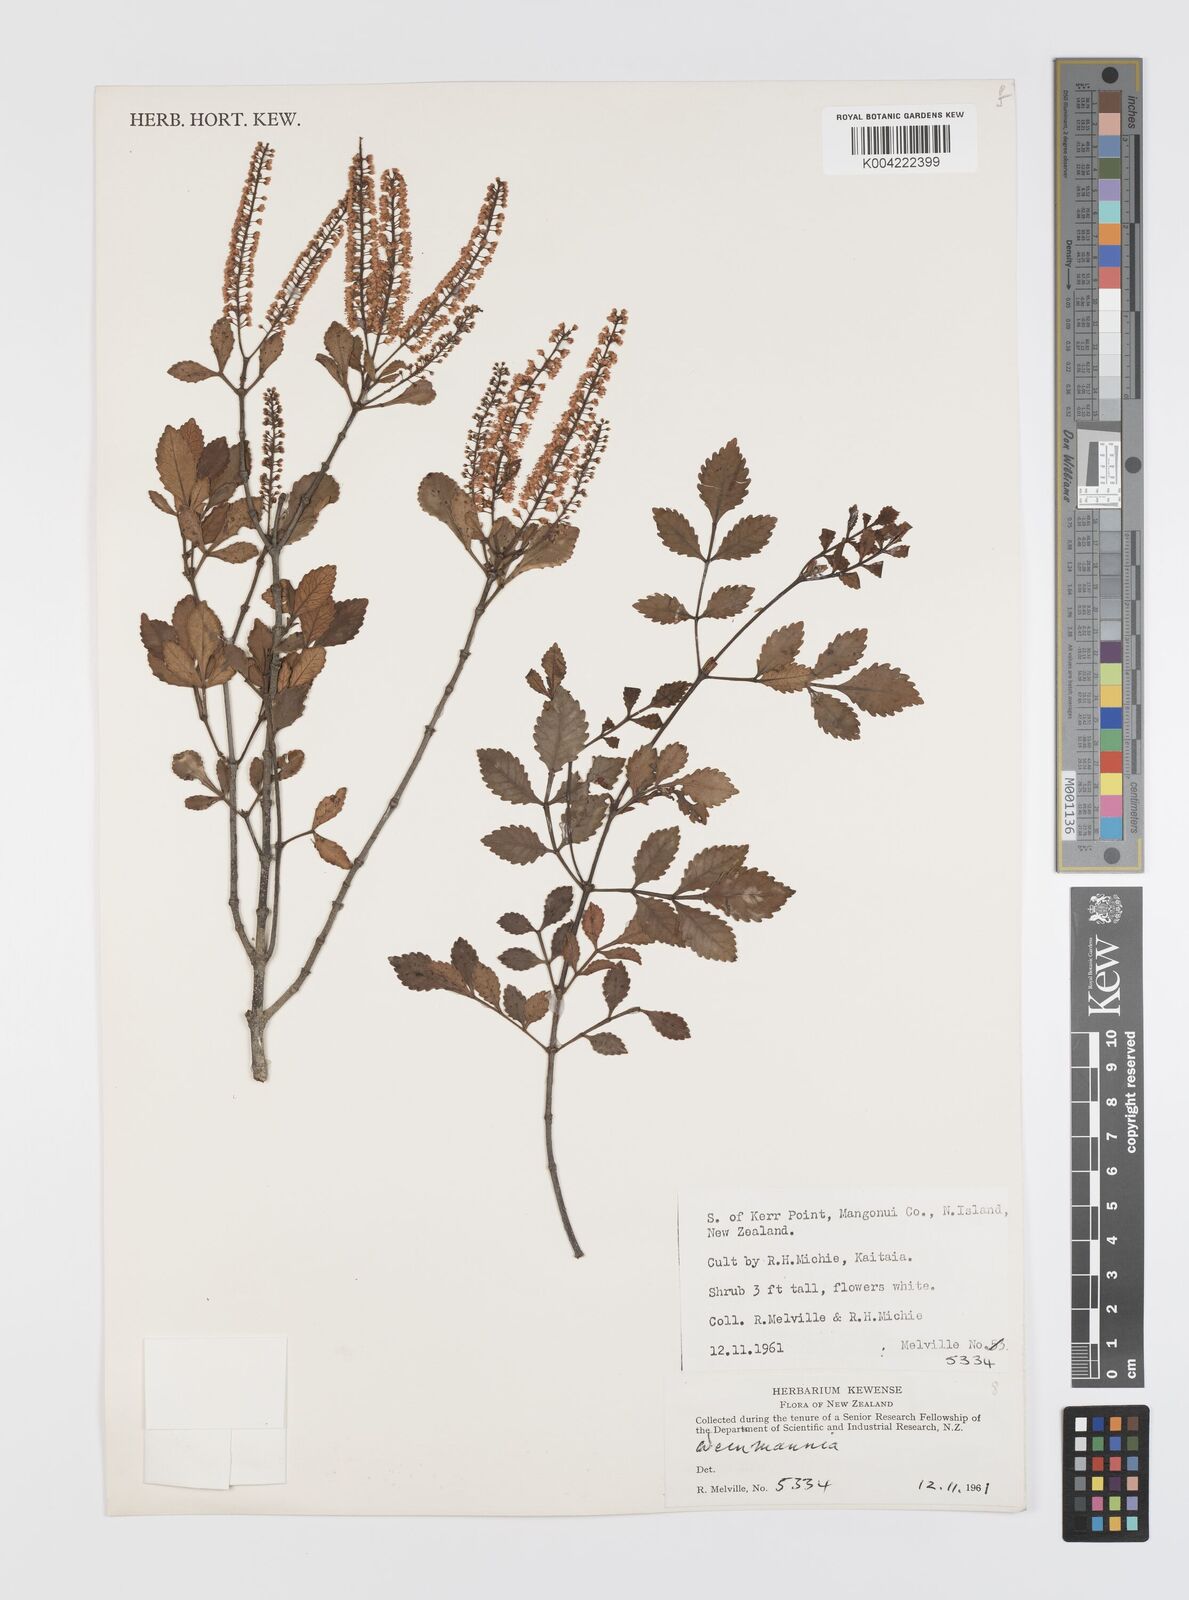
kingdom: Plantae
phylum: Tracheophyta
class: Magnoliopsida
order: Oxalidales
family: Cunoniaceae
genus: Weinmannia
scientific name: Weinmannia
